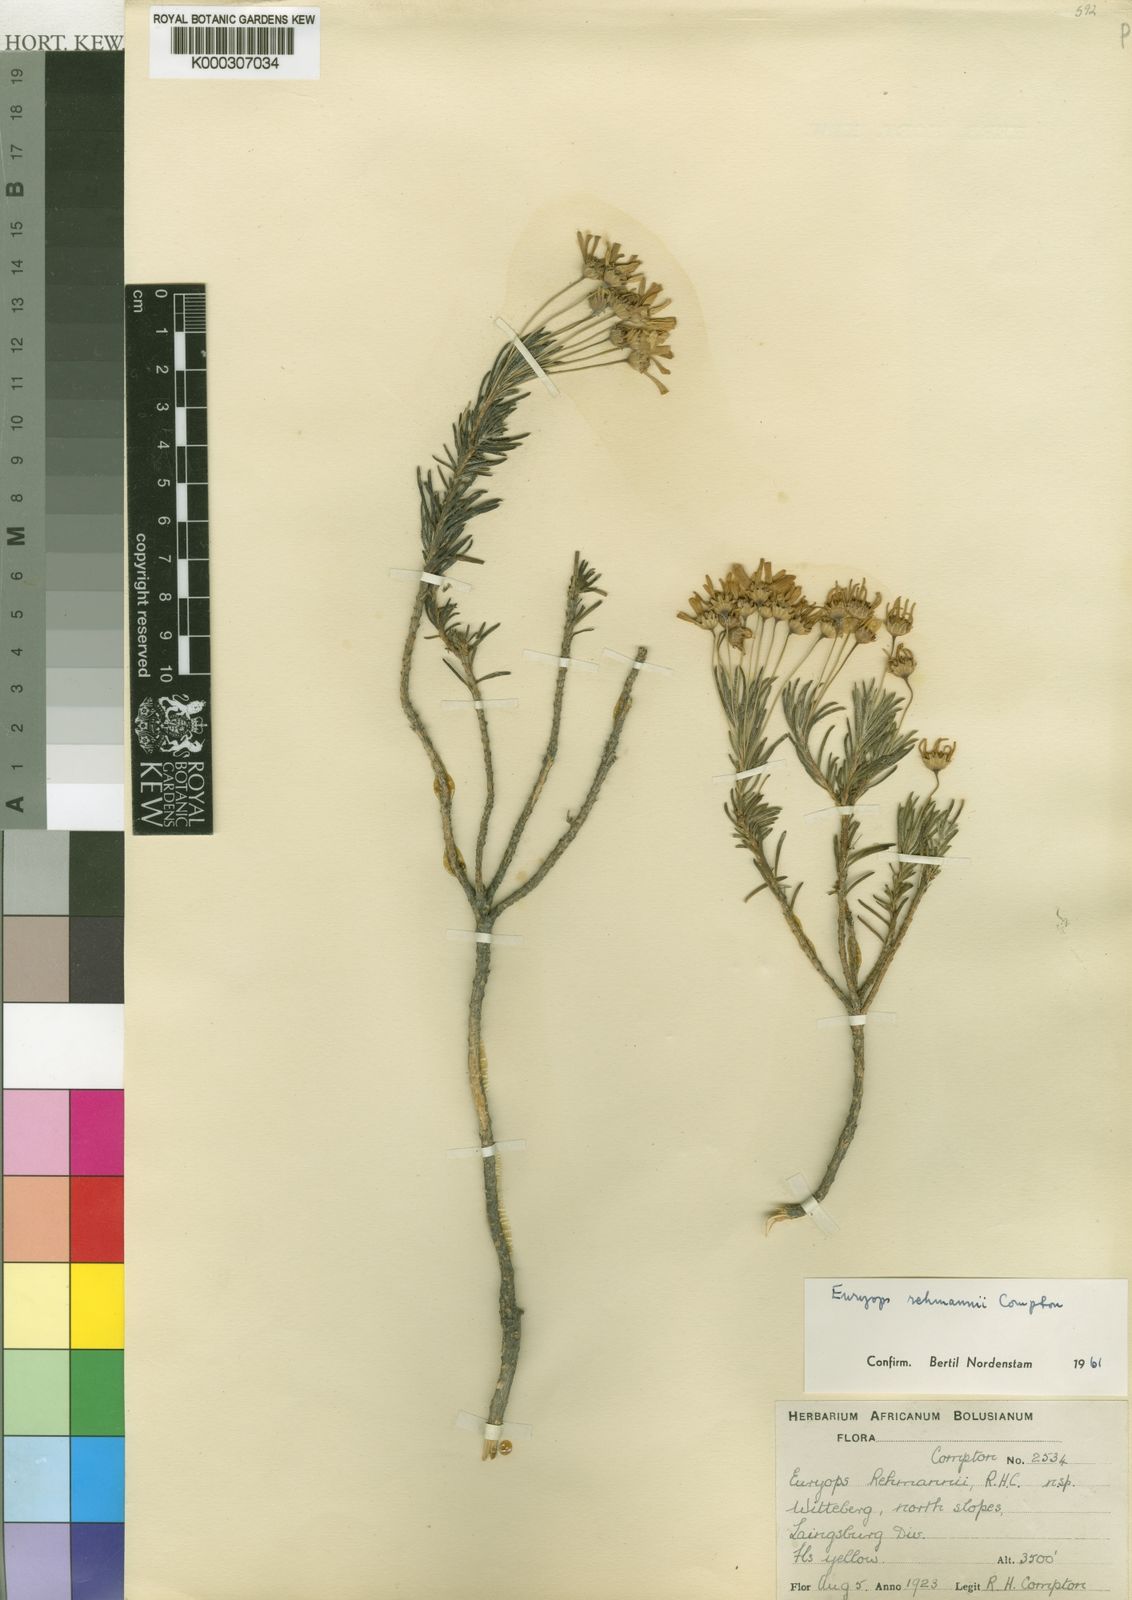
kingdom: Plantae
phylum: Tracheophyta
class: Magnoliopsida
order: Asterales
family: Asteraceae
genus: Euryops
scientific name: Euryops rehmannii
